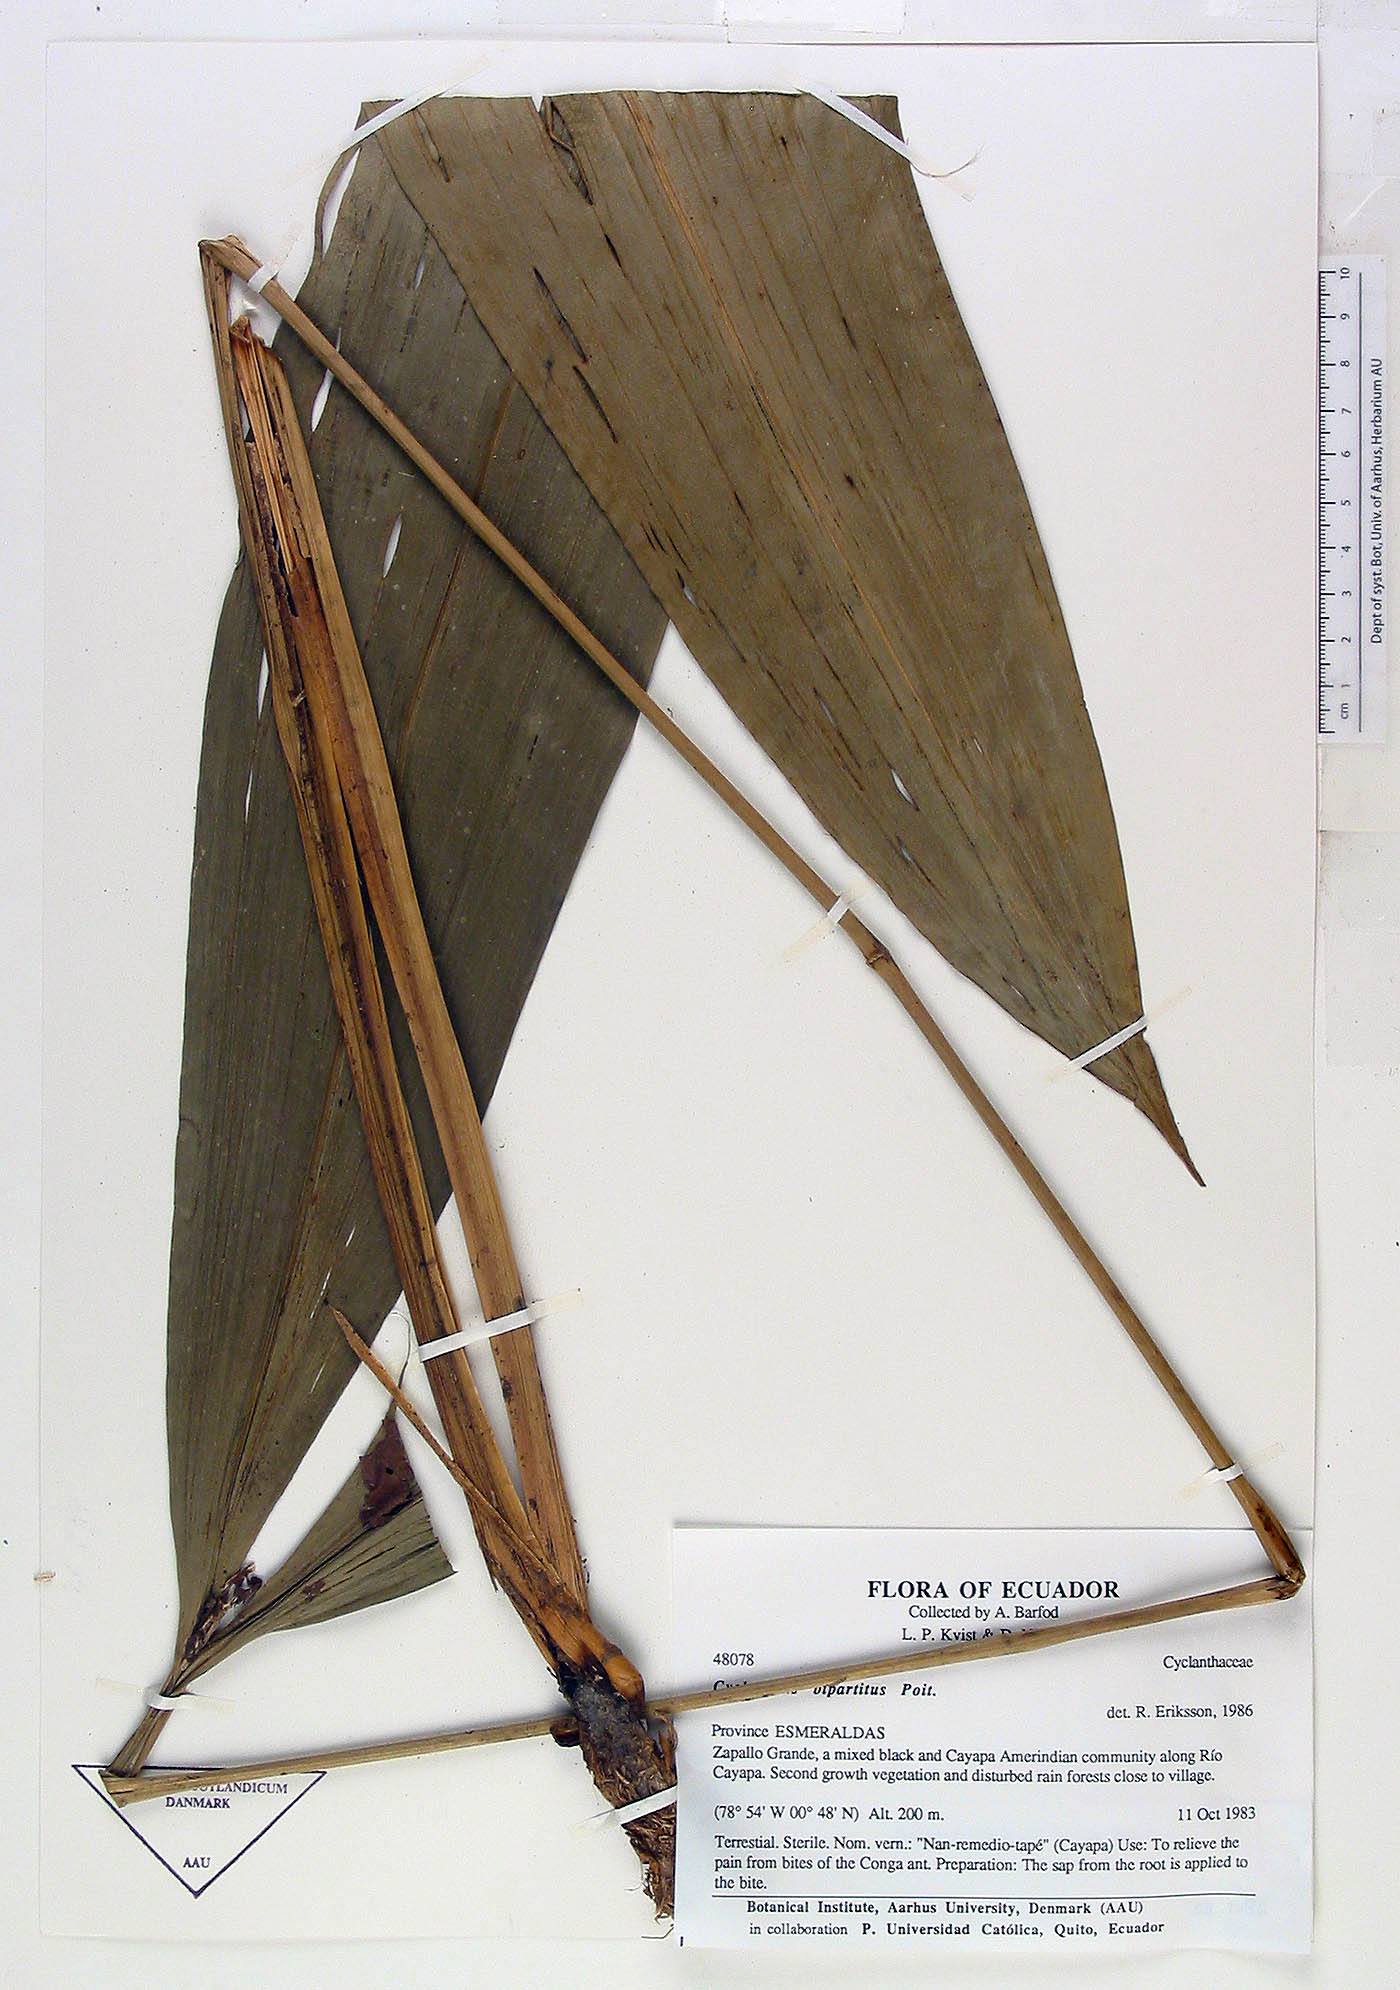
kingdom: Plantae
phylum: Tracheophyta
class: Liliopsida
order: Pandanales
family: Cyclanthaceae
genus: Cyclanthus
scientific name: Cyclanthus bipartitus
